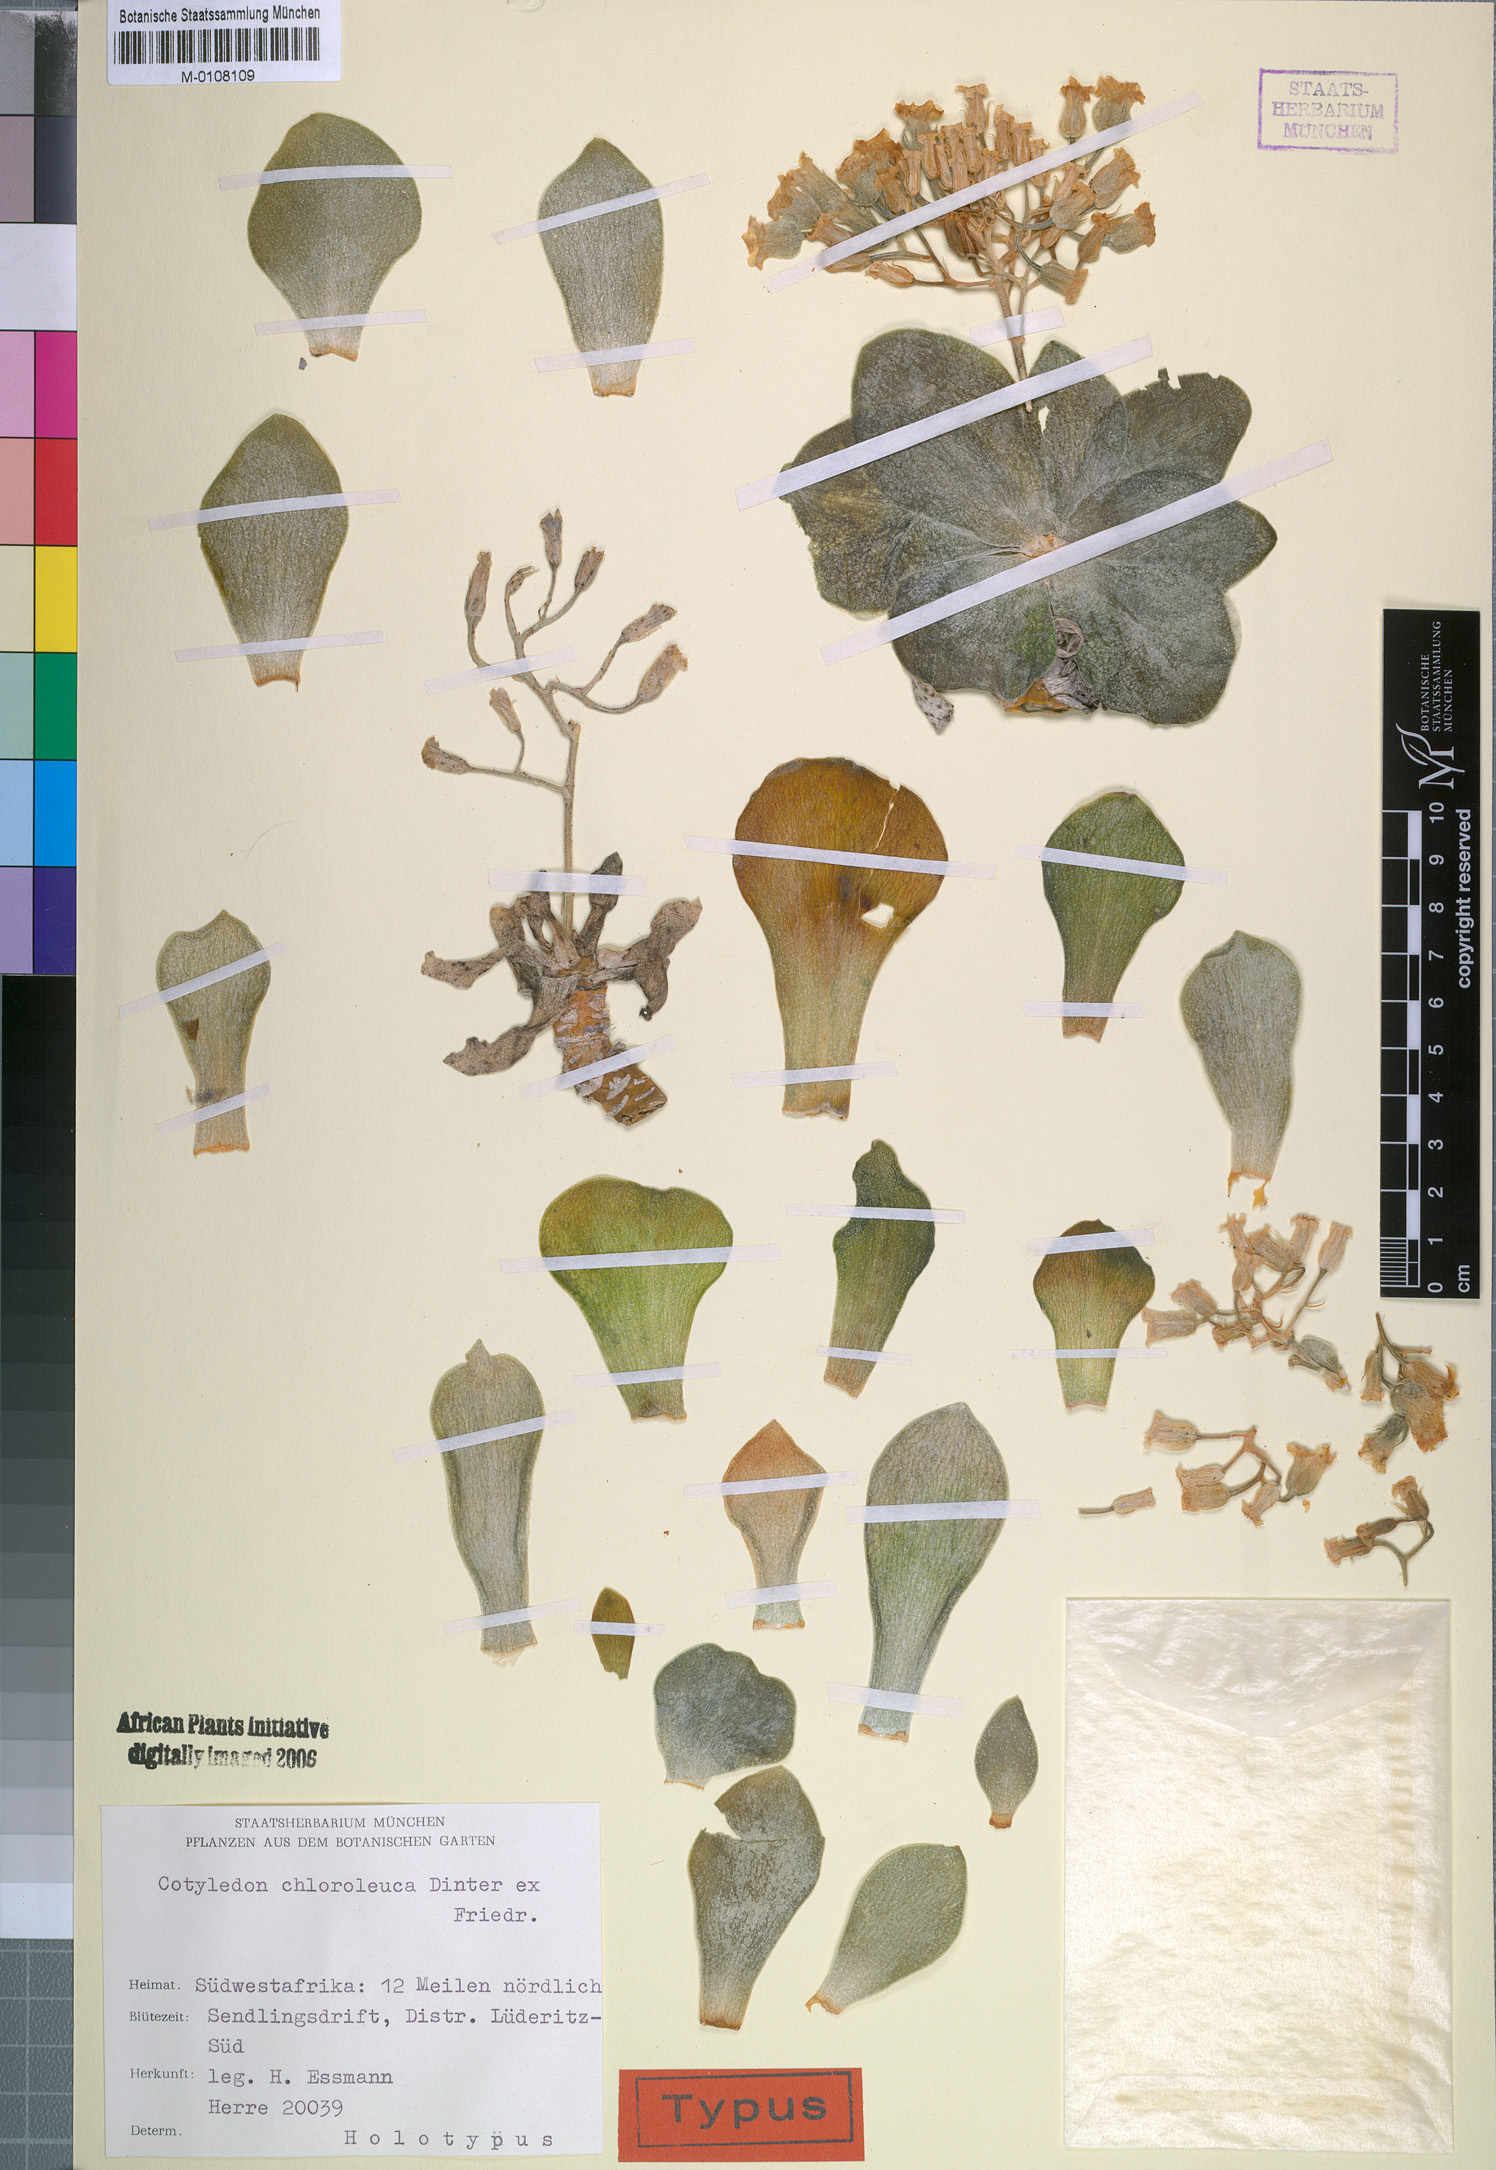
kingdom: Plantae
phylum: Tracheophyta
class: Magnoliopsida
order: Saxifragales
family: Crassulaceae
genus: Tylecodon
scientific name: Tylecodon racemosus
